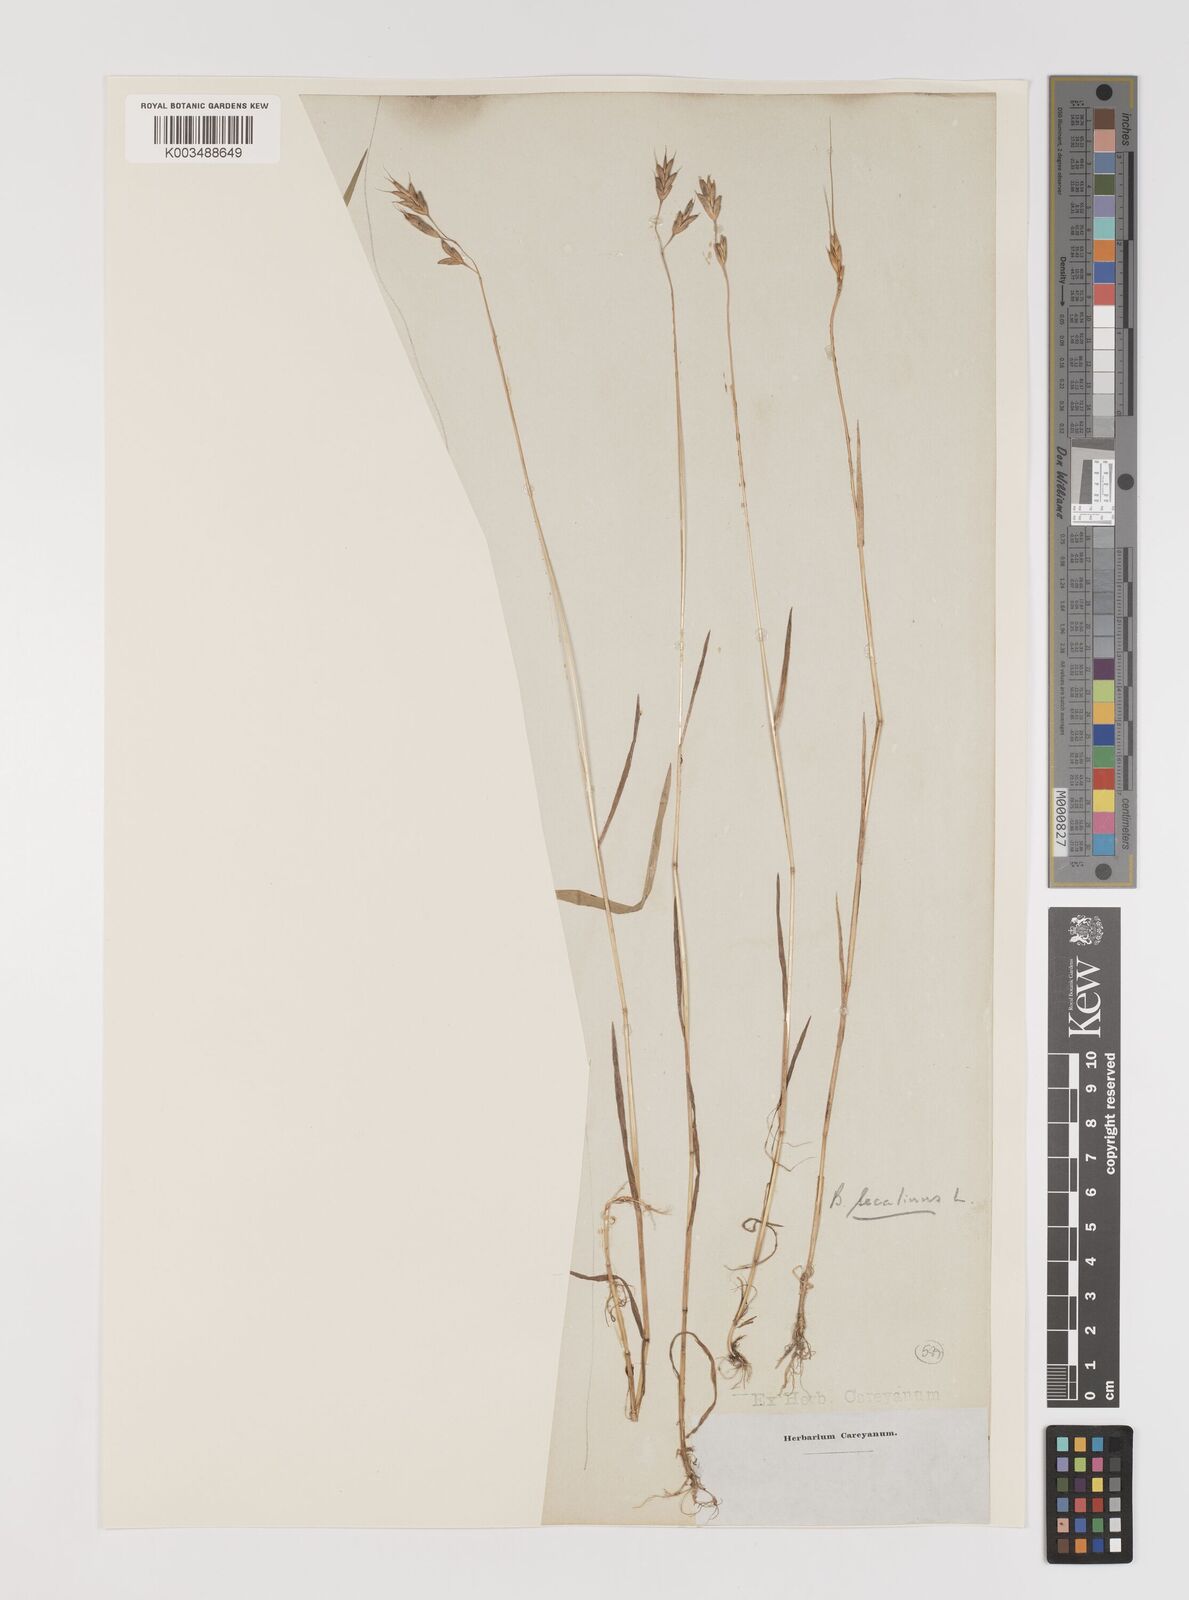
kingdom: Plantae
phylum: Tracheophyta
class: Liliopsida
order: Poales
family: Poaceae
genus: Bromus
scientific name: Bromus secalinus
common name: Rye brome
